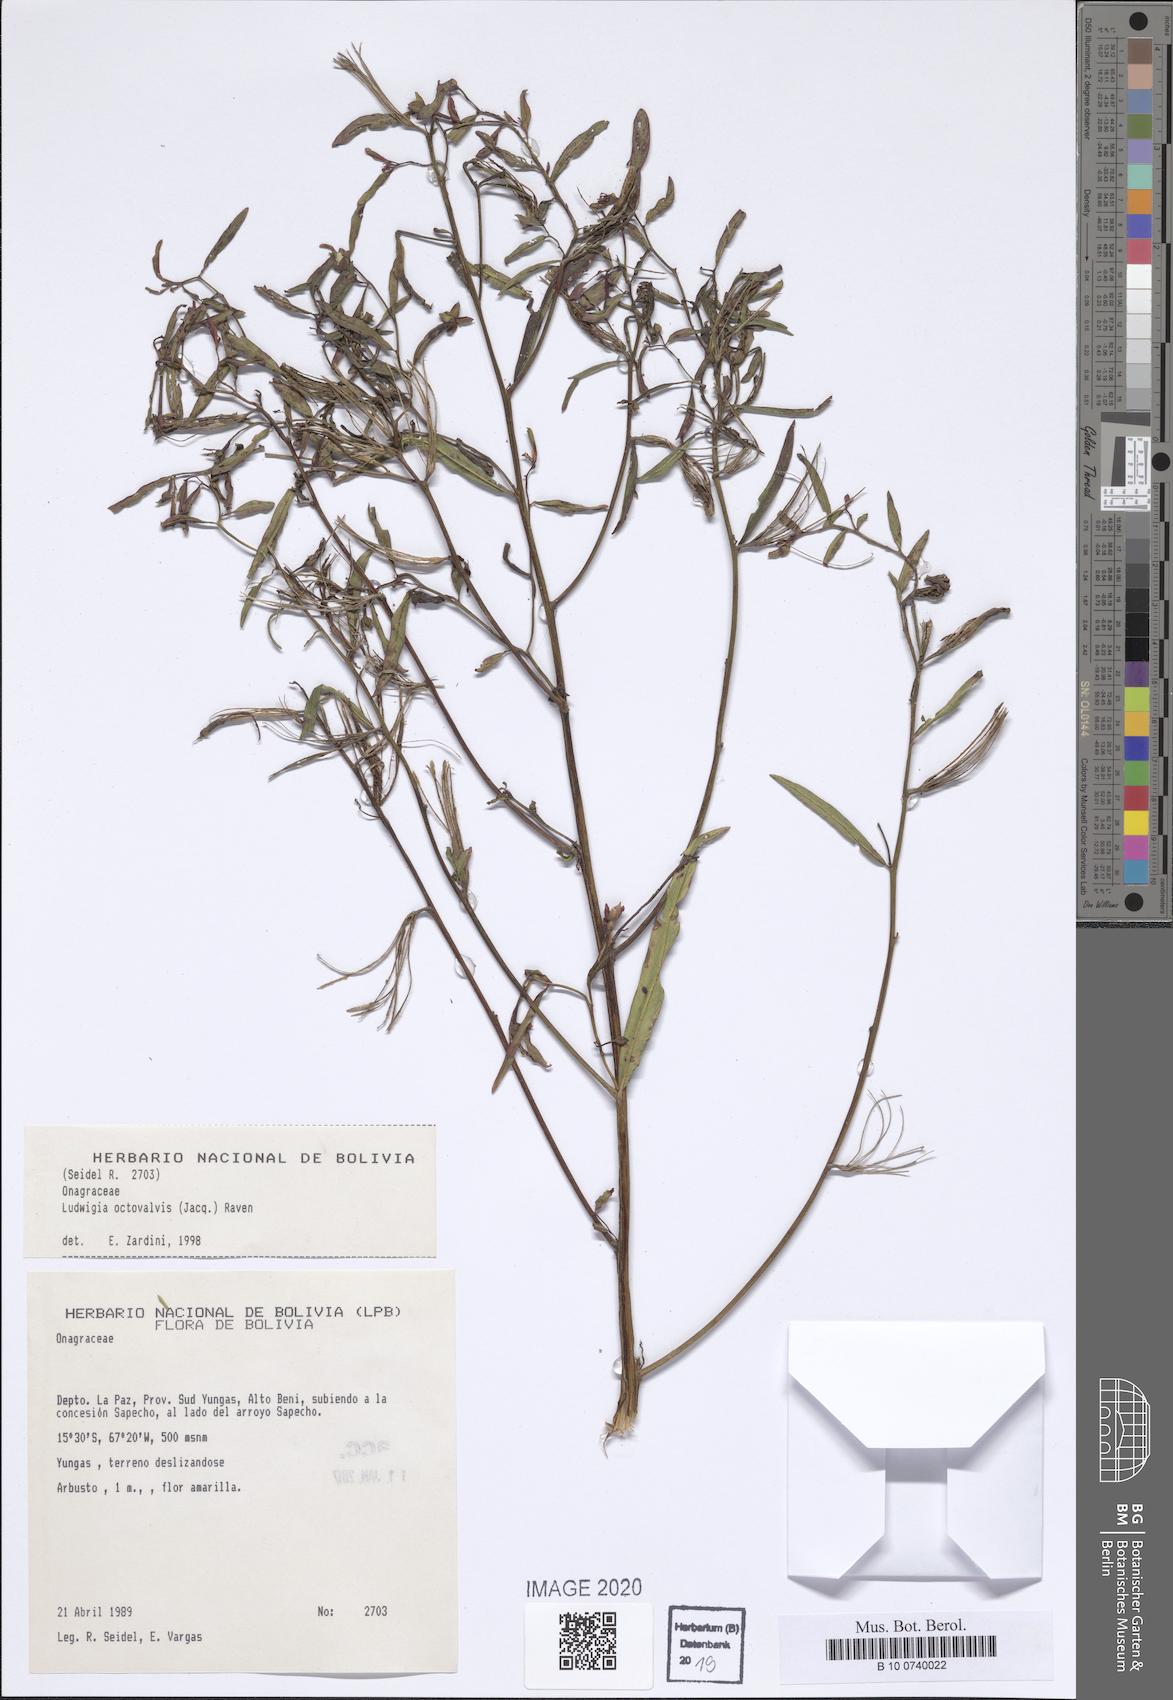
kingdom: Plantae
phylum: Tracheophyta
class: Magnoliopsida
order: Myrtales
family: Onagraceae
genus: Ludwigia
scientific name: Ludwigia octovalvis
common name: Water-primrose
